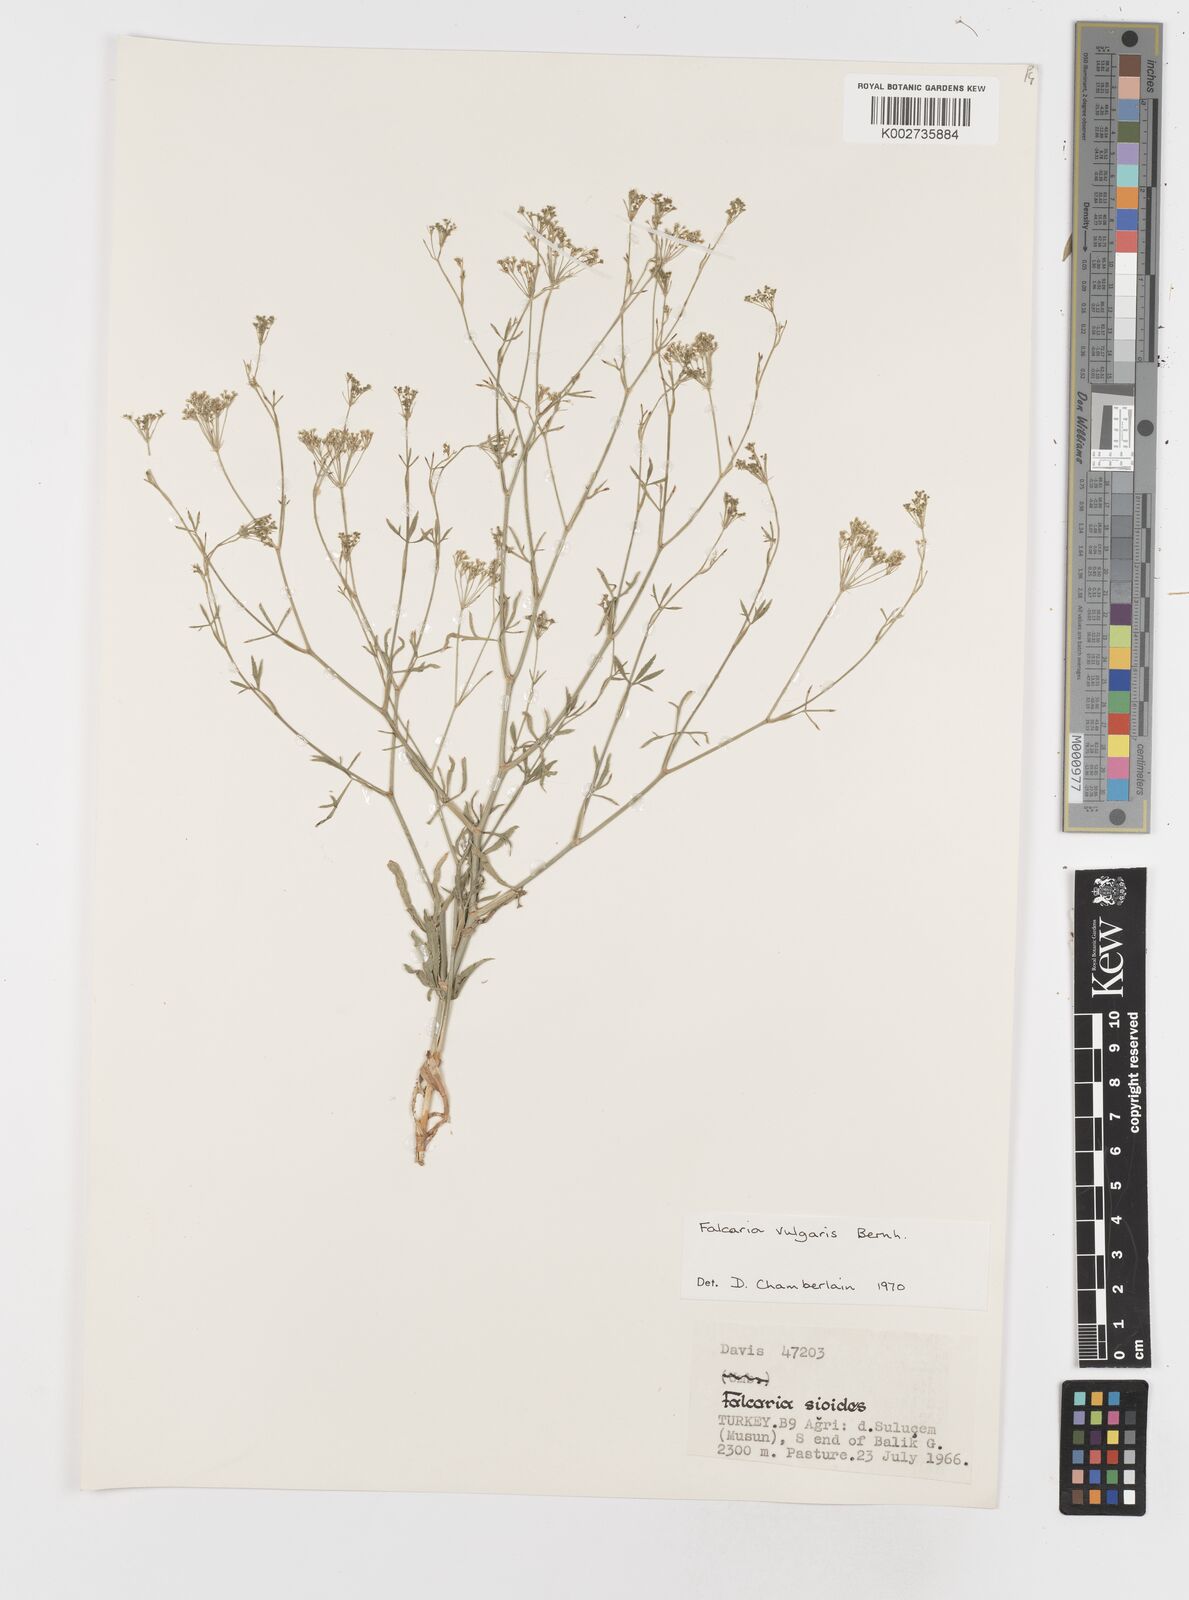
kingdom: Plantae
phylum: Tracheophyta
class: Magnoliopsida
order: Apiales
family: Apiaceae
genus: Falcaria
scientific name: Falcaria vulgaris
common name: Longleaf
